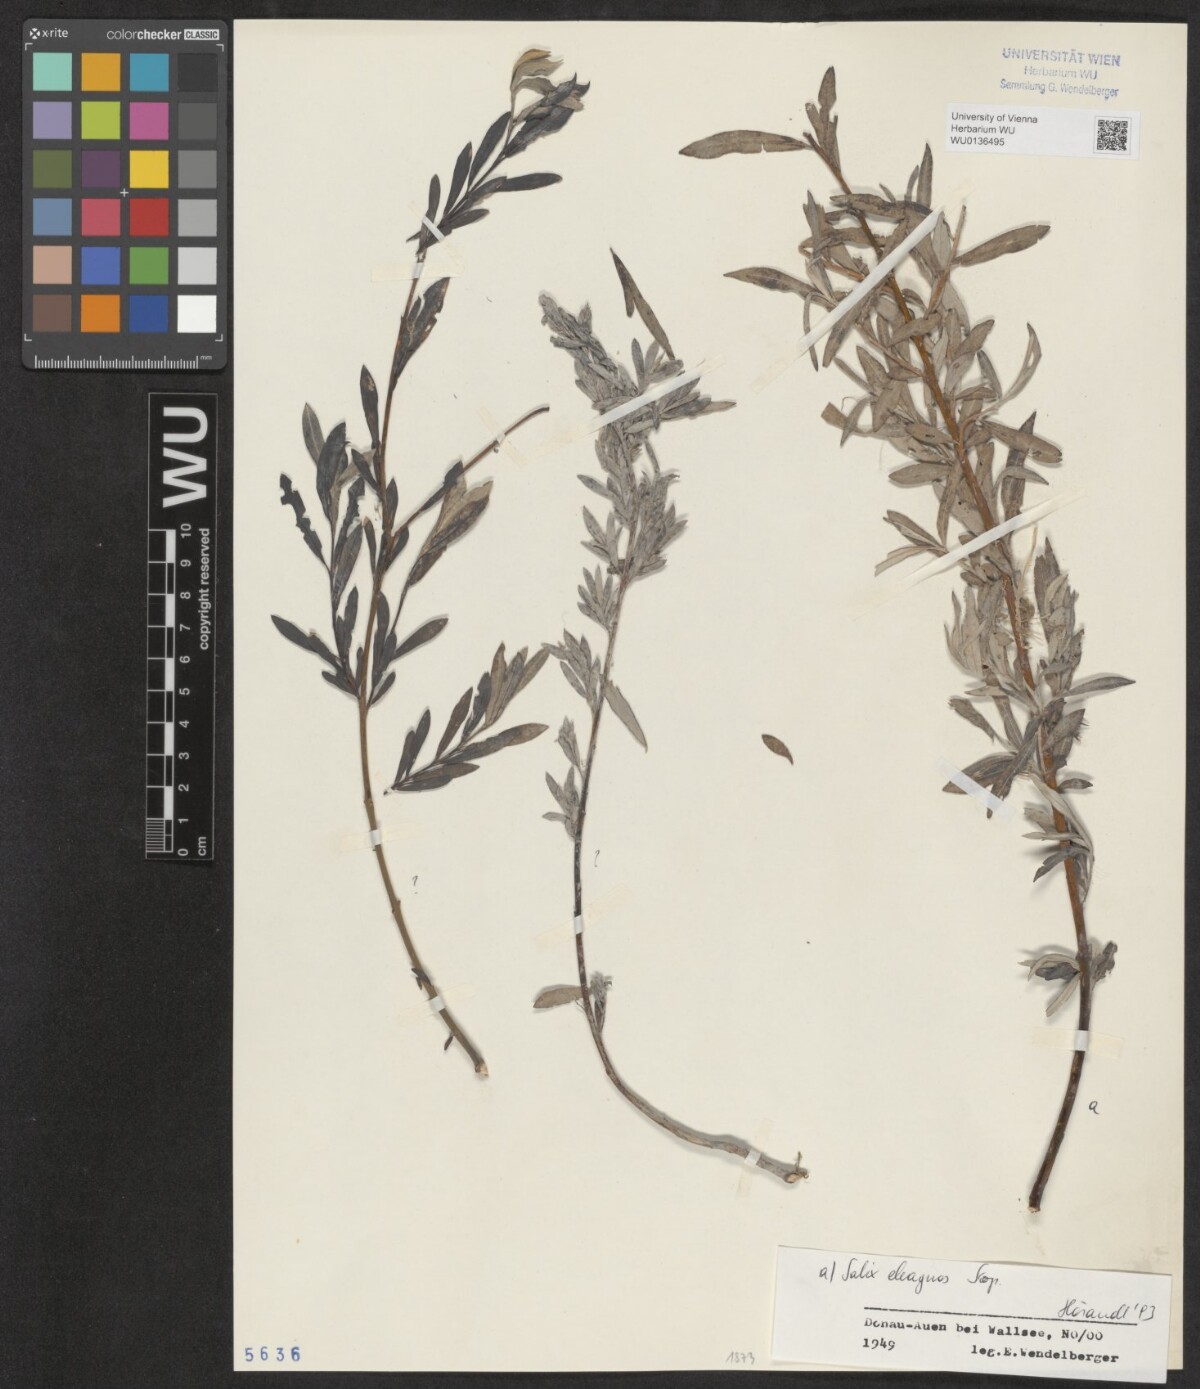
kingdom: Plantae
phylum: Tracheophyta
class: Magnoliopsida
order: Malpighiales
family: Salicaceae
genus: Salix
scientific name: Salix eleagnos
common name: Elaeagnus willow
